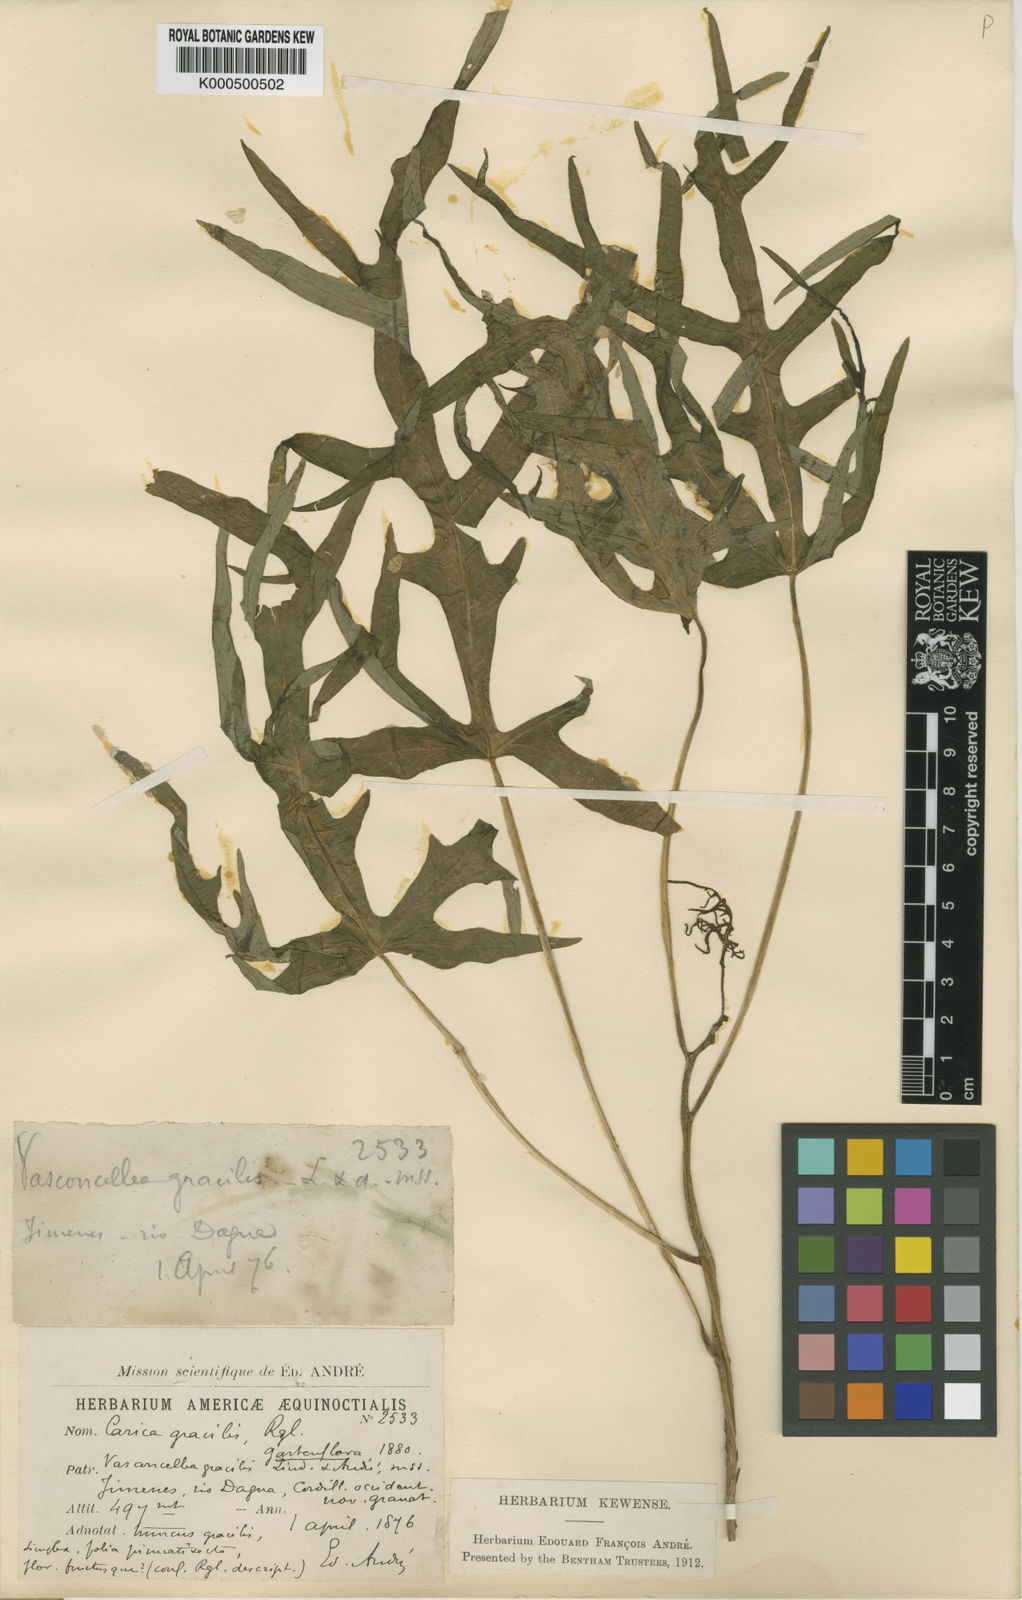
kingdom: Plantae
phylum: Tracheophyta
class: Magnoliopsida
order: Brassicales
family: Caricaceae
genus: Vasconcellea
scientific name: Vasconcellea goudotiana
